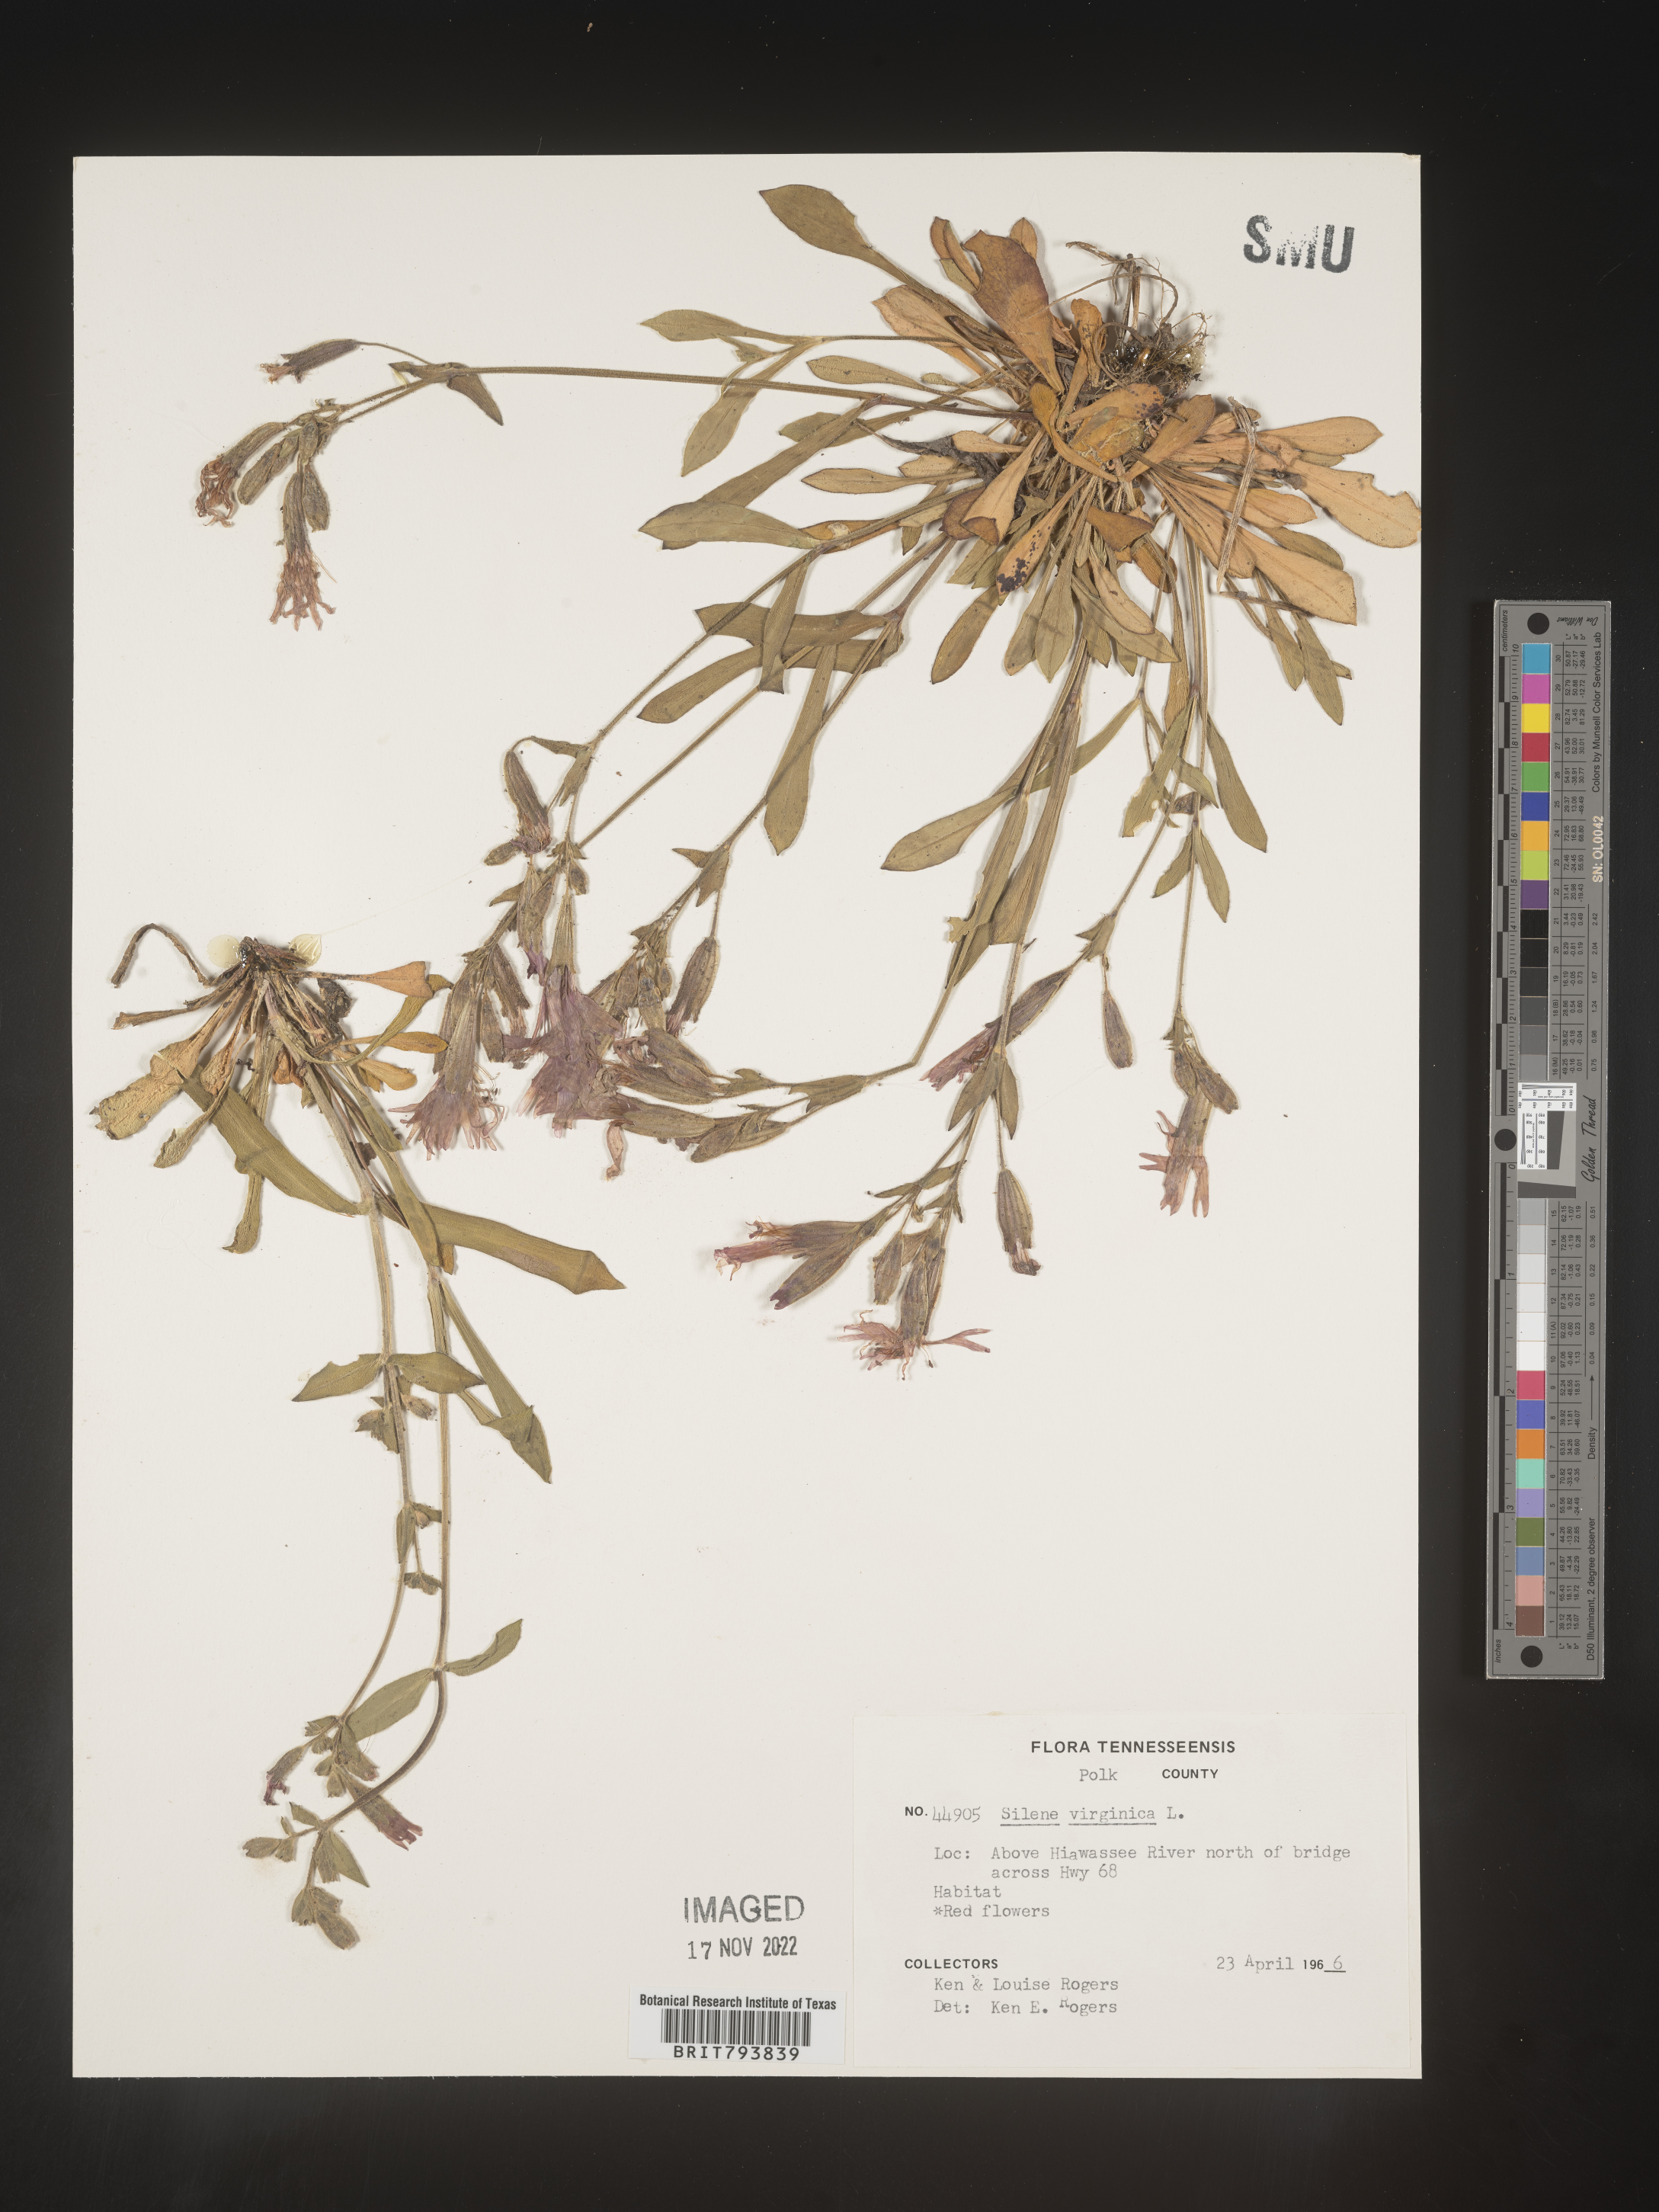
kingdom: Plantae
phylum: Tracheophyta
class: Magnoliopsida
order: Caryophyllales
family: Caryophyllaceae
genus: Silene
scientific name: Silene virginica
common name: Fire-pink
